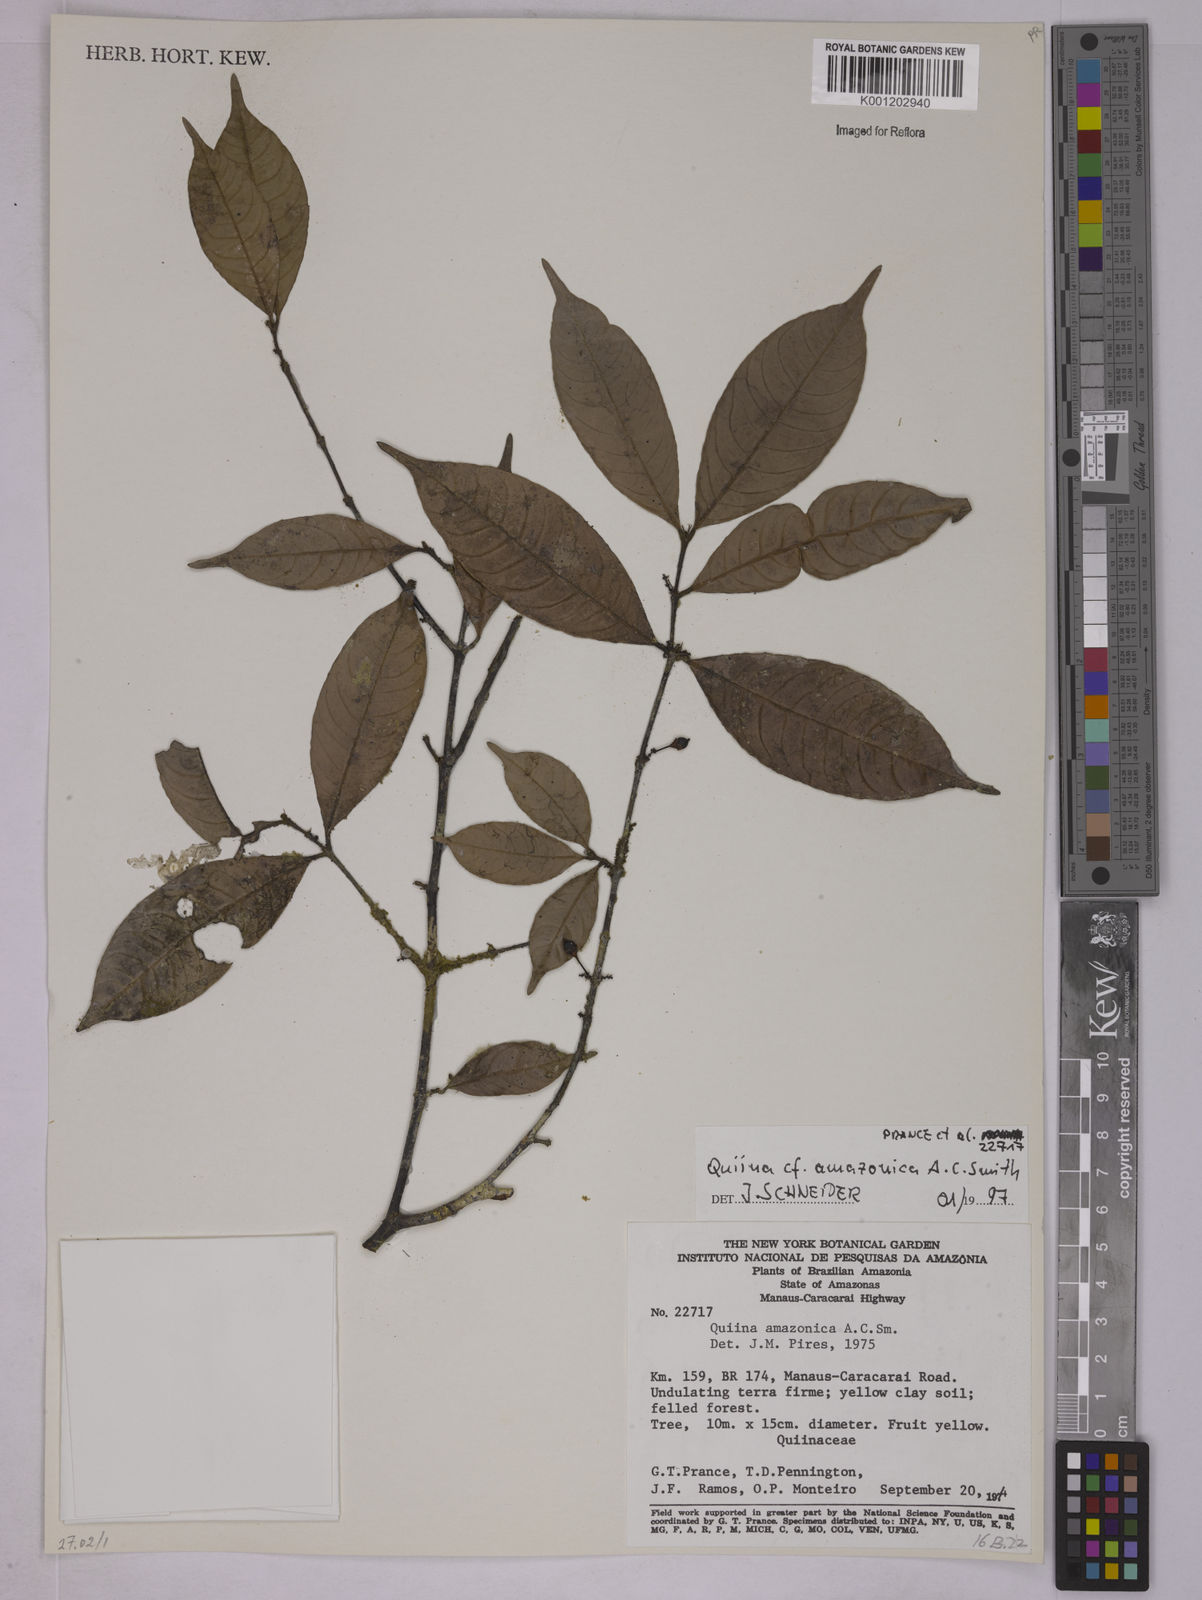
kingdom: Plantae
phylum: Tracheophyta
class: Magnoliopsida
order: Malpighiales
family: Quiinaceae
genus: Quiina
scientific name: Quiina amazonica
